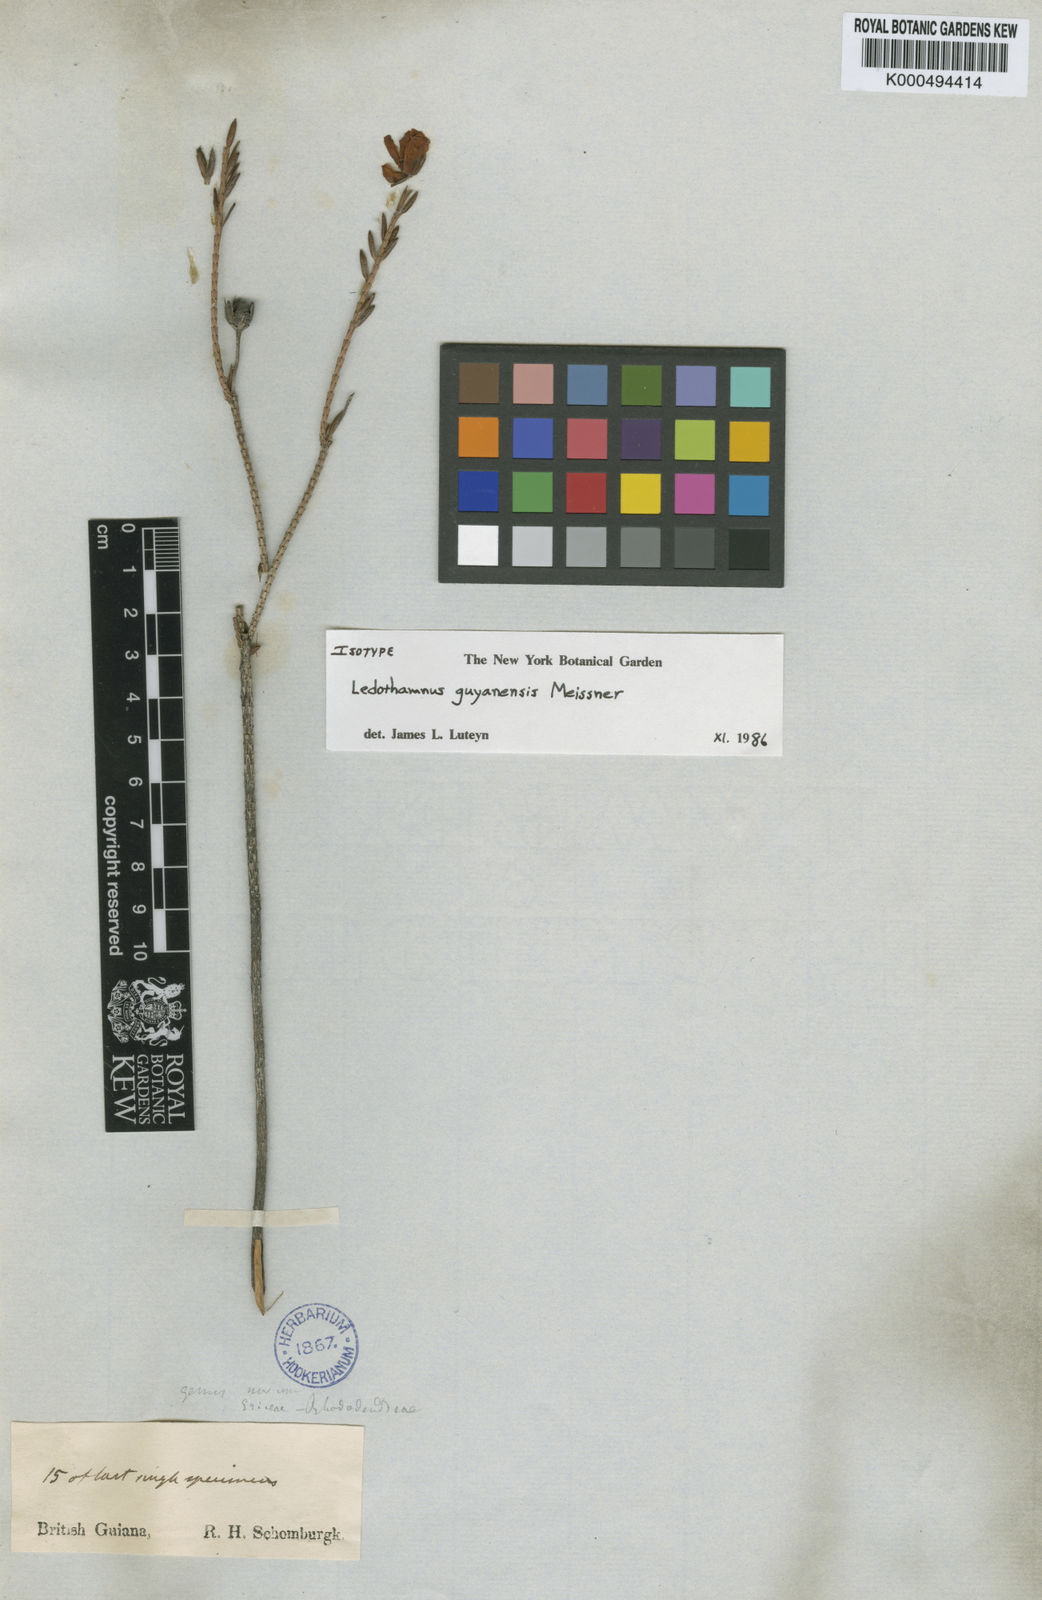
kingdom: Plantae
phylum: Tracheophyta
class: Magnoliopsida
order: Ericales
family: Ericaceae
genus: Ledothamnus
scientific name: Ledothamnus guyanensis
